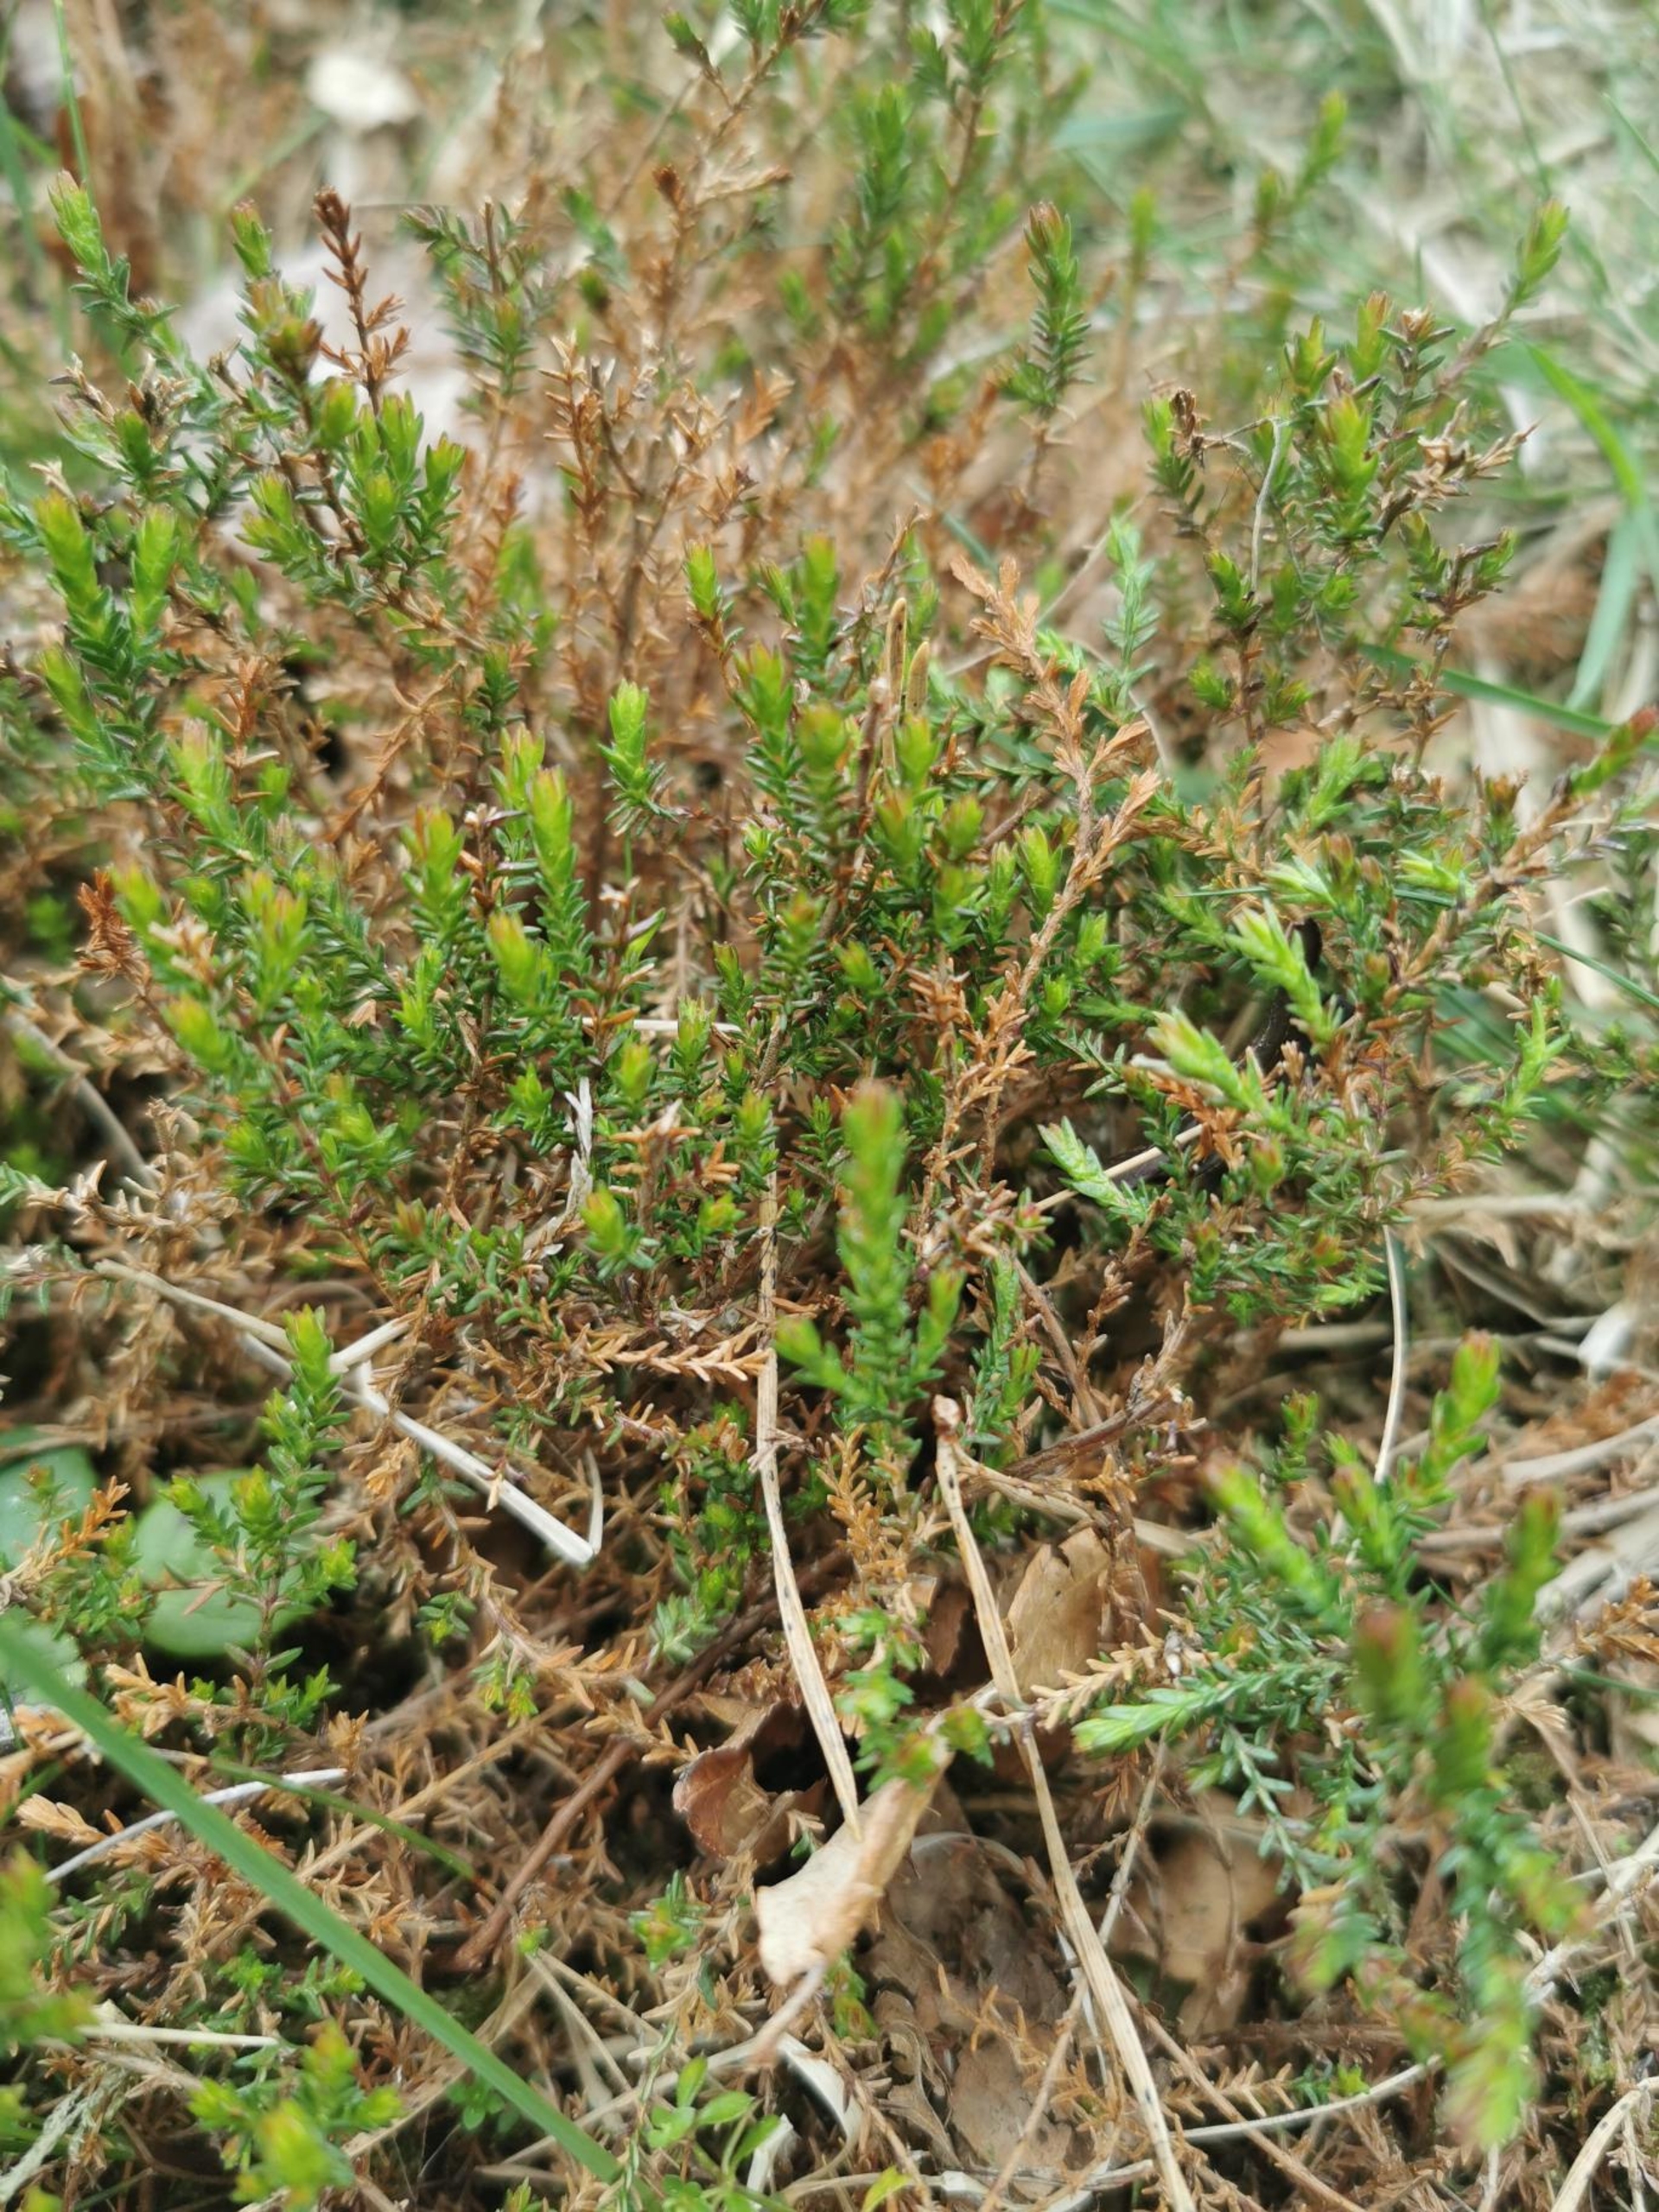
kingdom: Plantae
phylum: Tracheophyta
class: Magnoliopsida
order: Ericales
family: Ericaceae
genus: Calluna
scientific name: Calluna vulgaris
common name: Hedelyng
